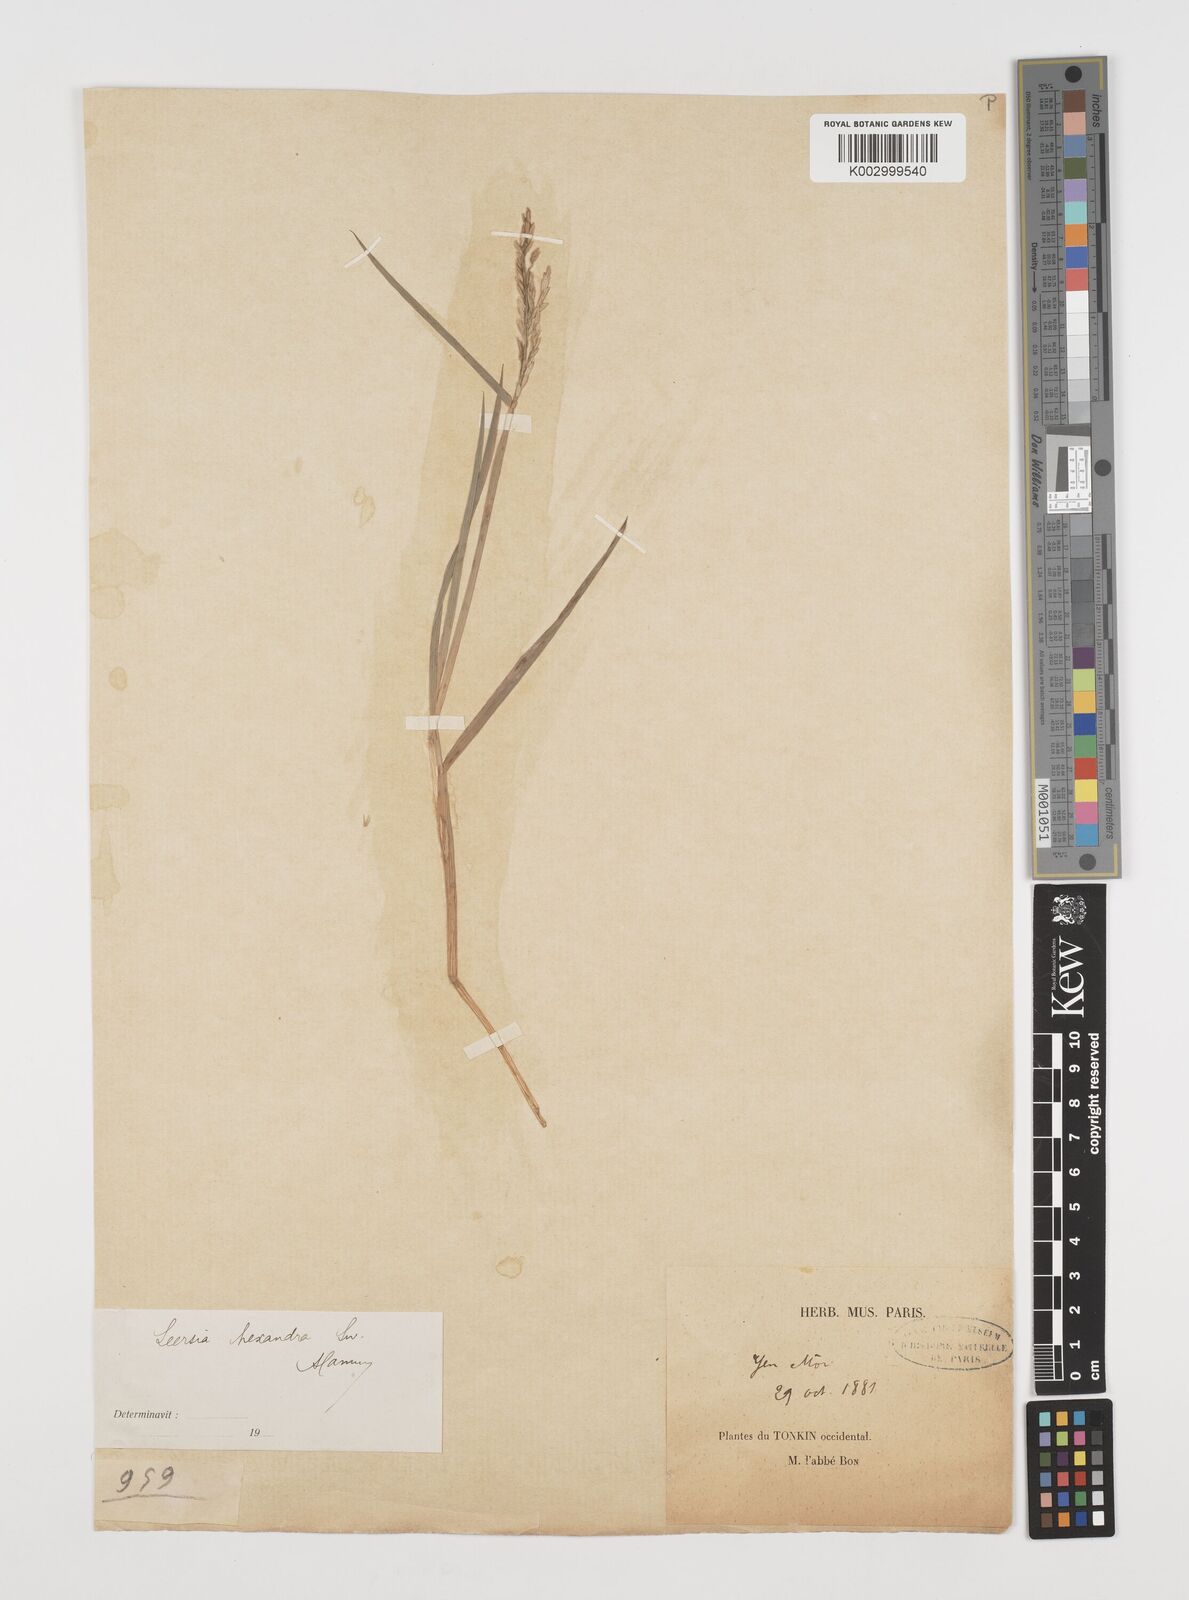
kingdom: Plantae
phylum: Tracheophyta
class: Liliopsida
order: Poales
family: Poaceae
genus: Leersia
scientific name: Leersia hexandra
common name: Southern cut grass
